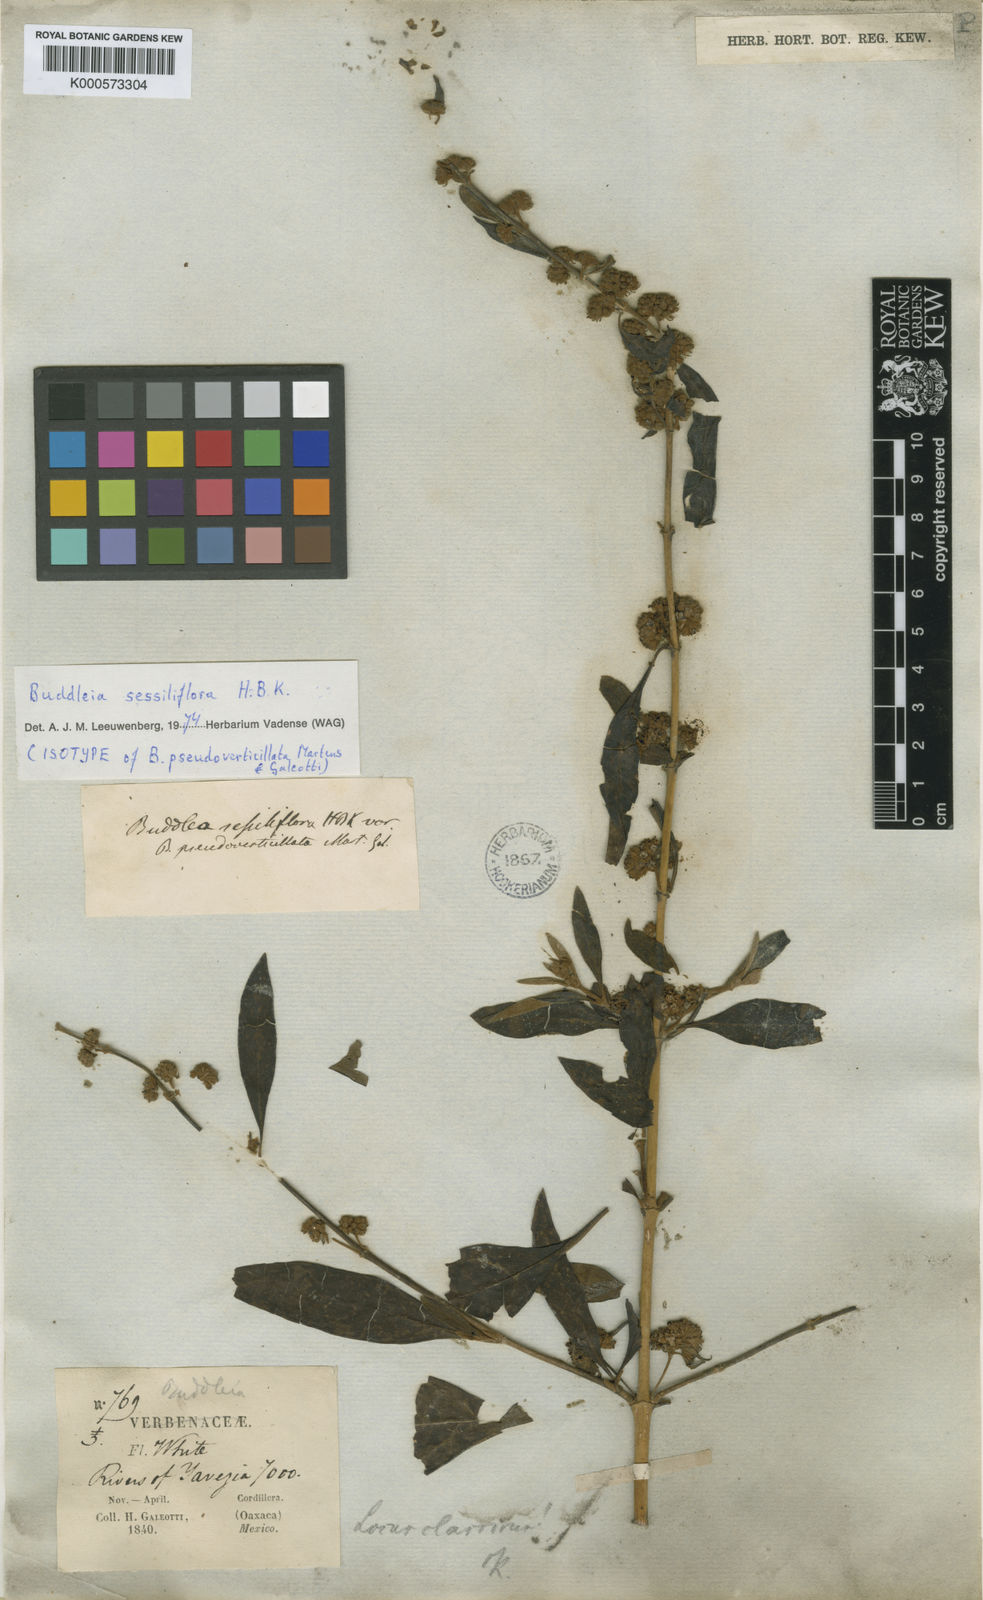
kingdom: Plantae
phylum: Tracheophyta
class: Magnoliopsida
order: Lamiales
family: Scrophulariaceae
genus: Buddleja
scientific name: Buddleja sessiliflora
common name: Rio grande butterfly-bush
